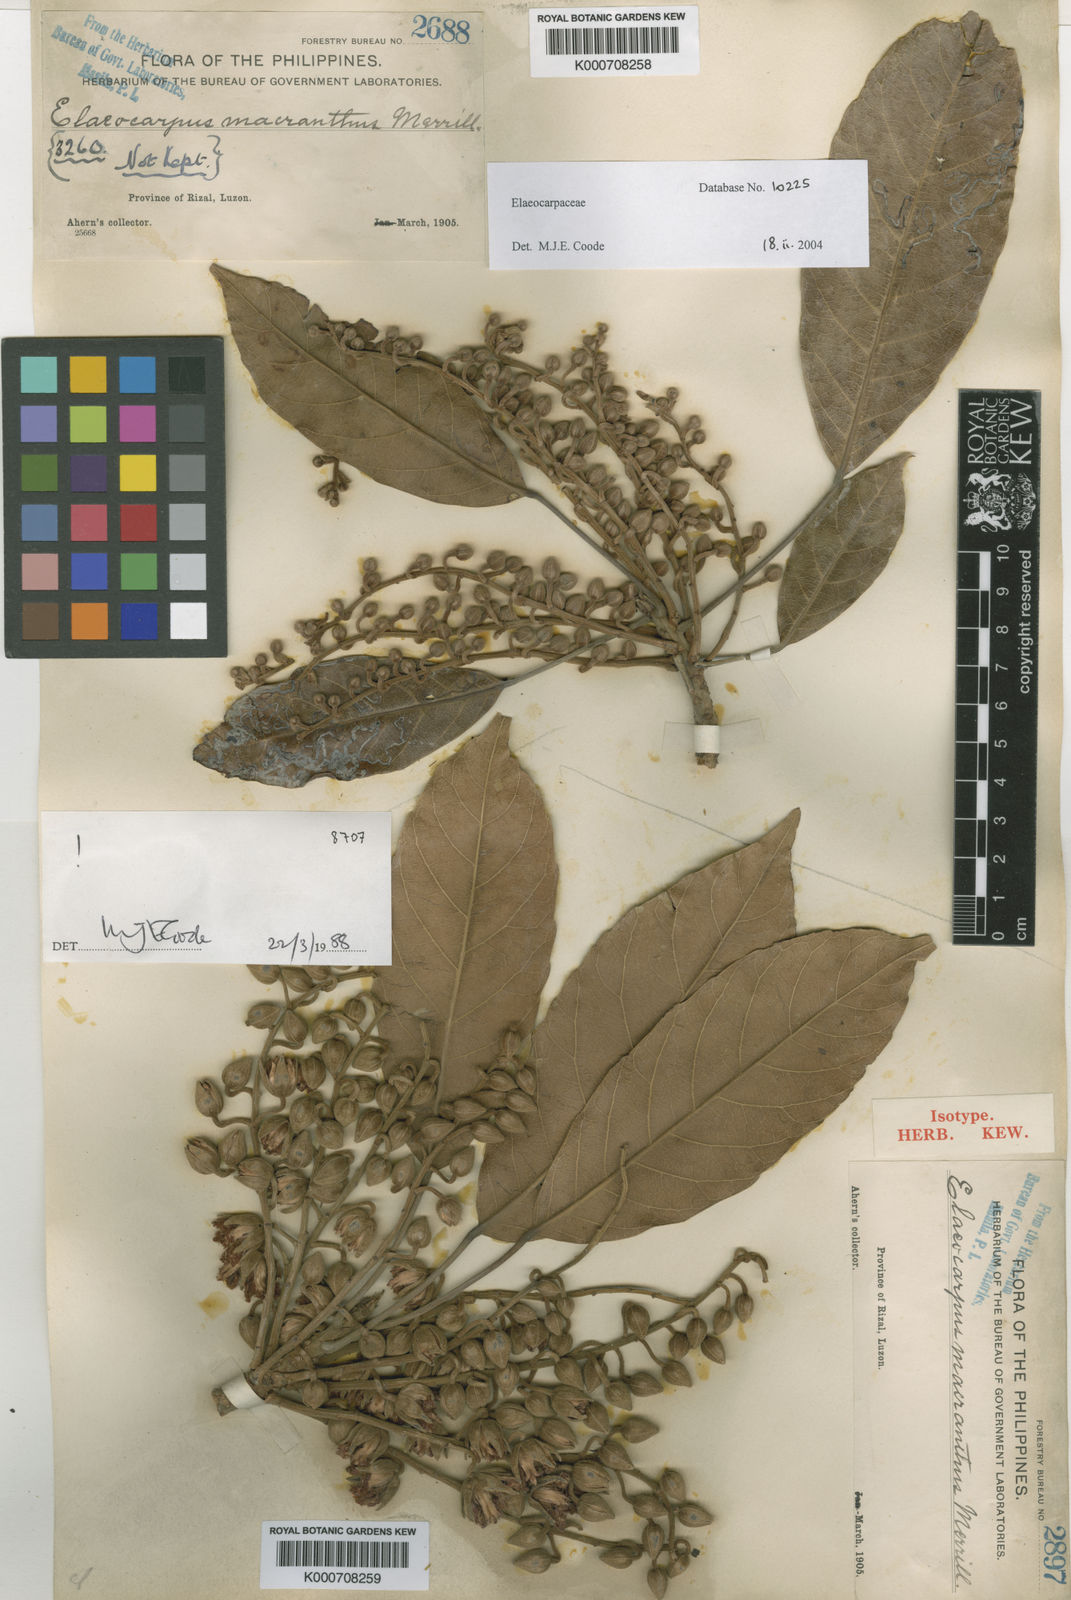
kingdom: Plantae
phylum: Tracheophyta
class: Magnoliopsida
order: Oxalidales
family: Elaeocarpaceae
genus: Elaeocarpus
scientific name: Elaeocarpus macranthus
